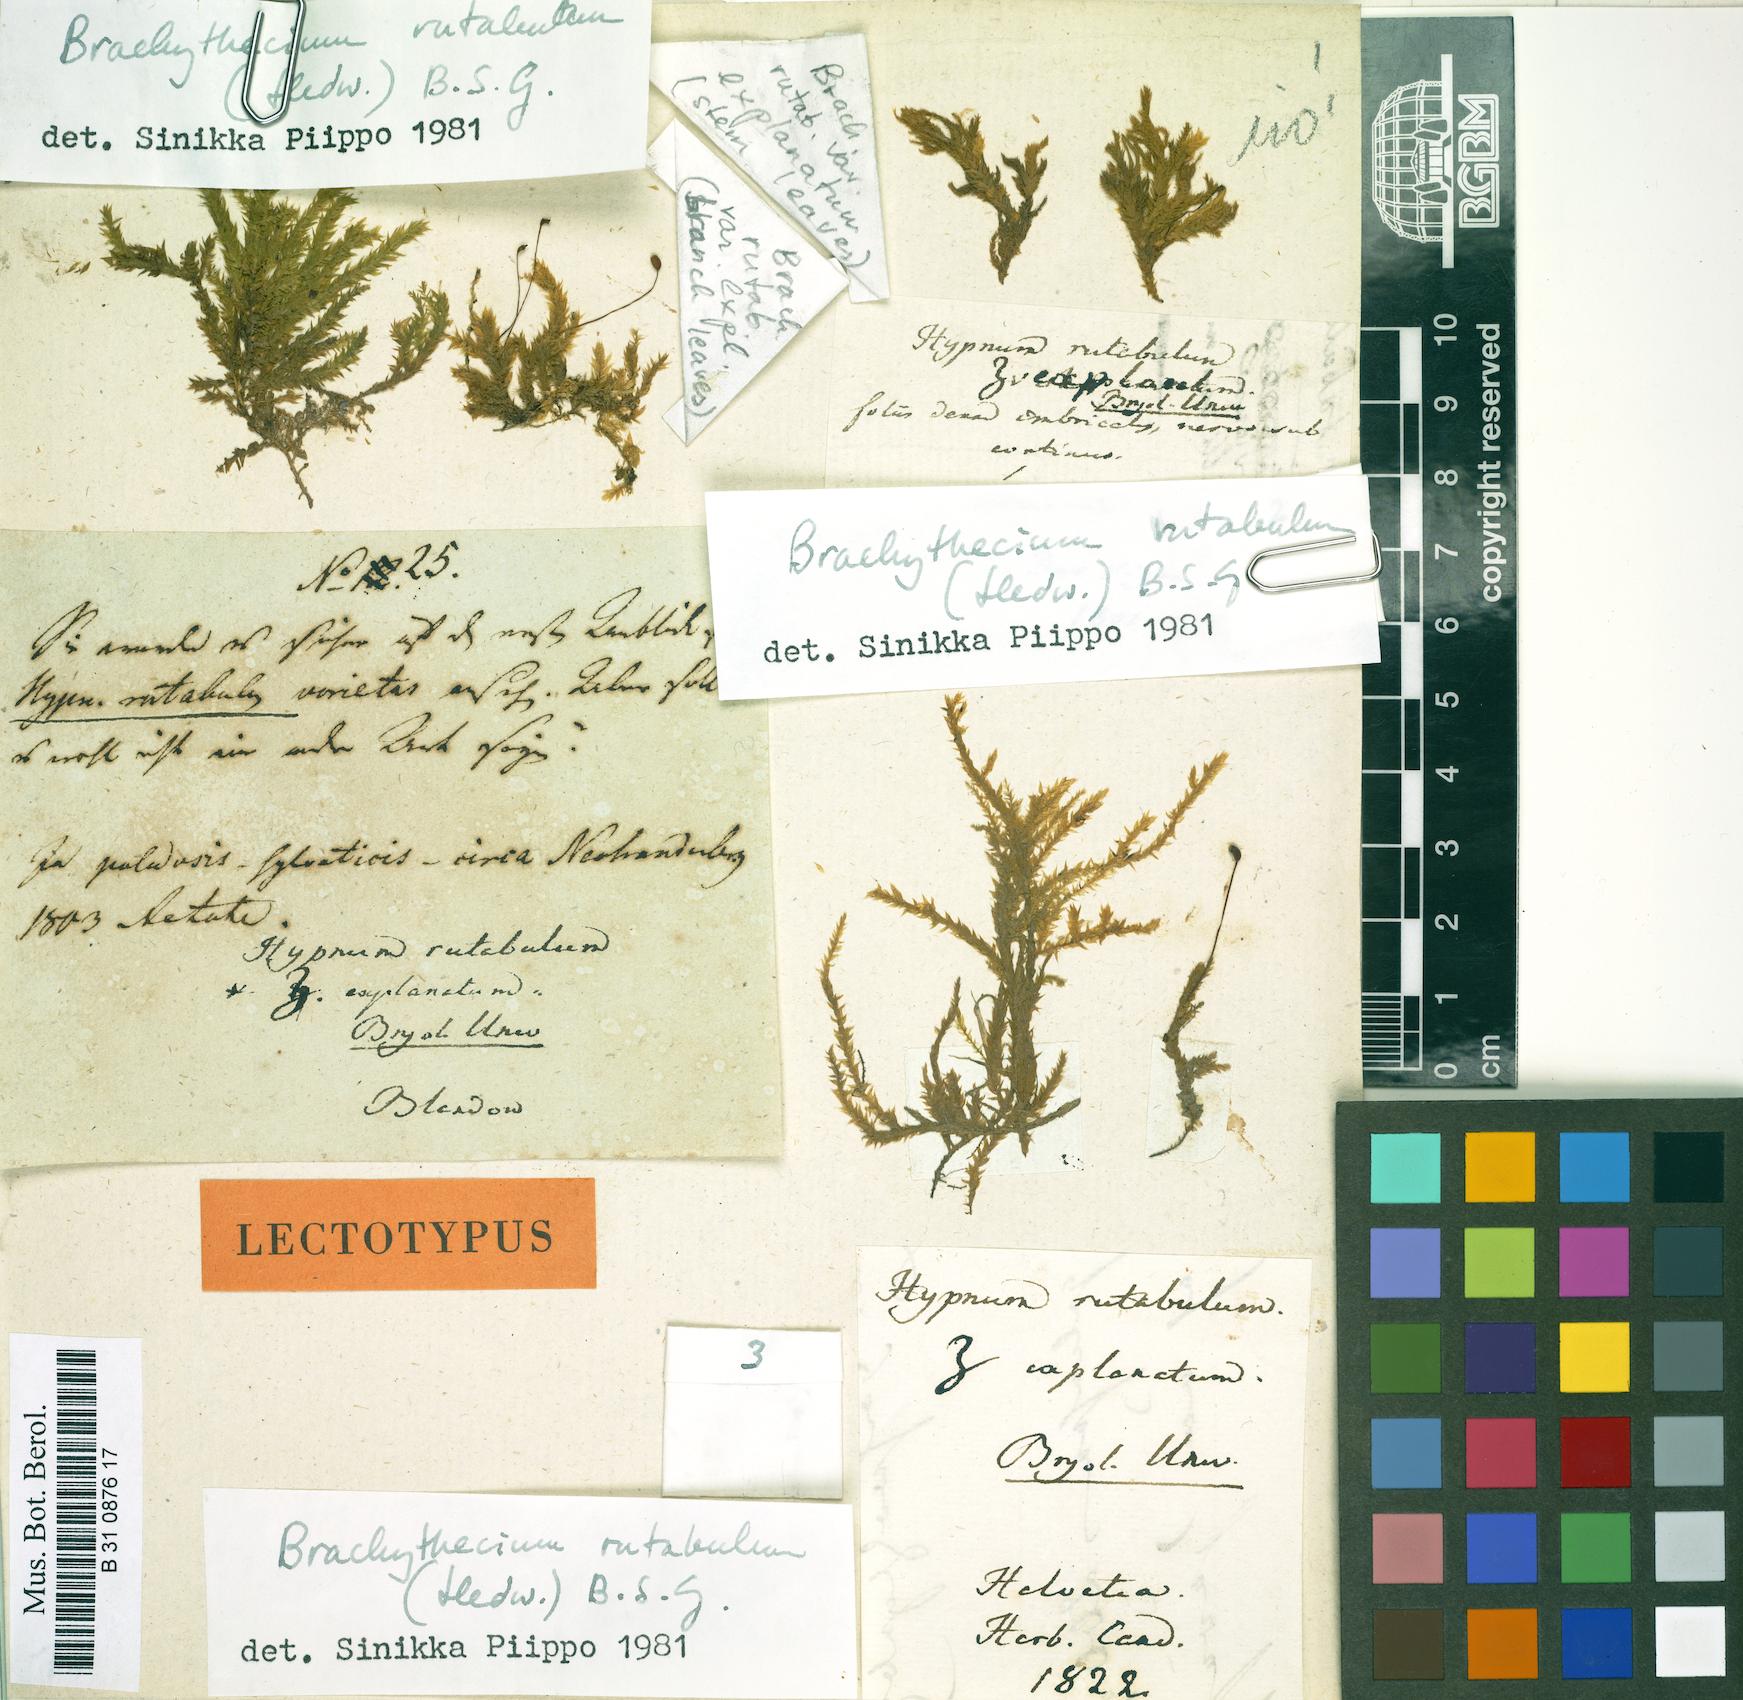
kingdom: Plantae
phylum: Bryophyta
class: Bryopsida
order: Hypnales
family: Brachytheciaceae
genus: Brachythecium
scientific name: Brachythecium rutabulum
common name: Rough-stalked feather-moss
